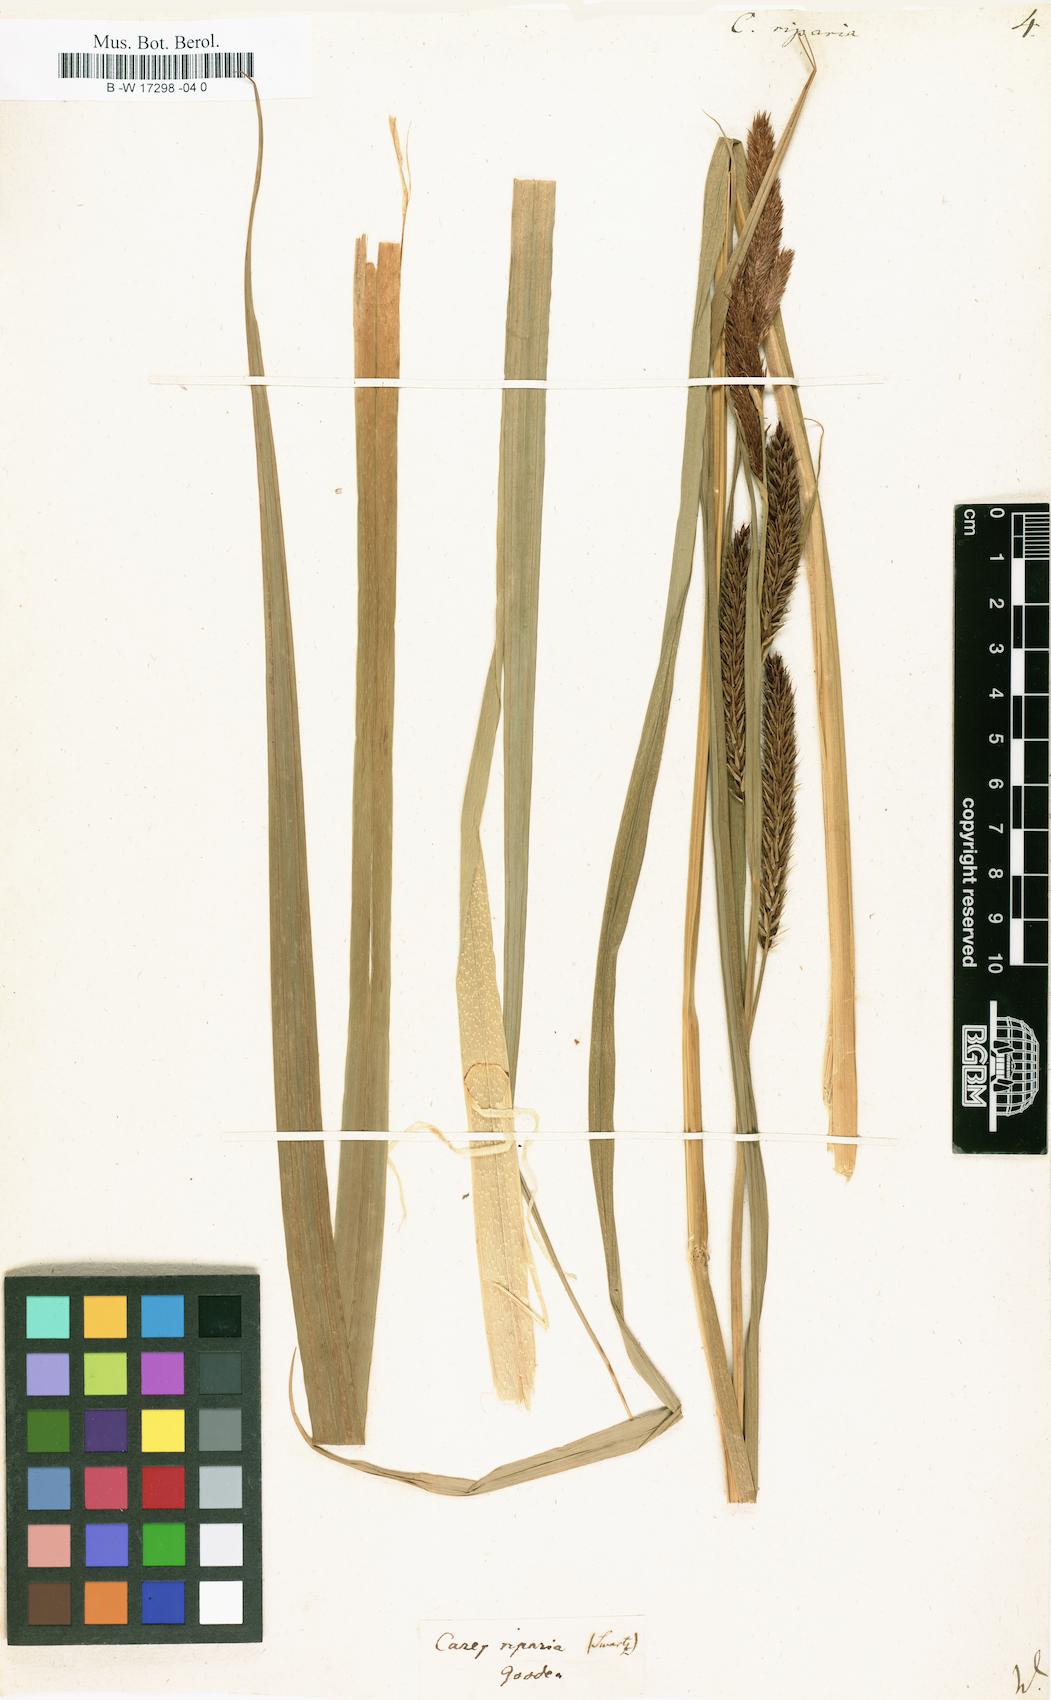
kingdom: Plantae
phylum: Tracheophyta
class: Liliopsida
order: Poales
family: Cyperaceae
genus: Carex
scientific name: Carex riparia
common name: Greater pond-sedge
